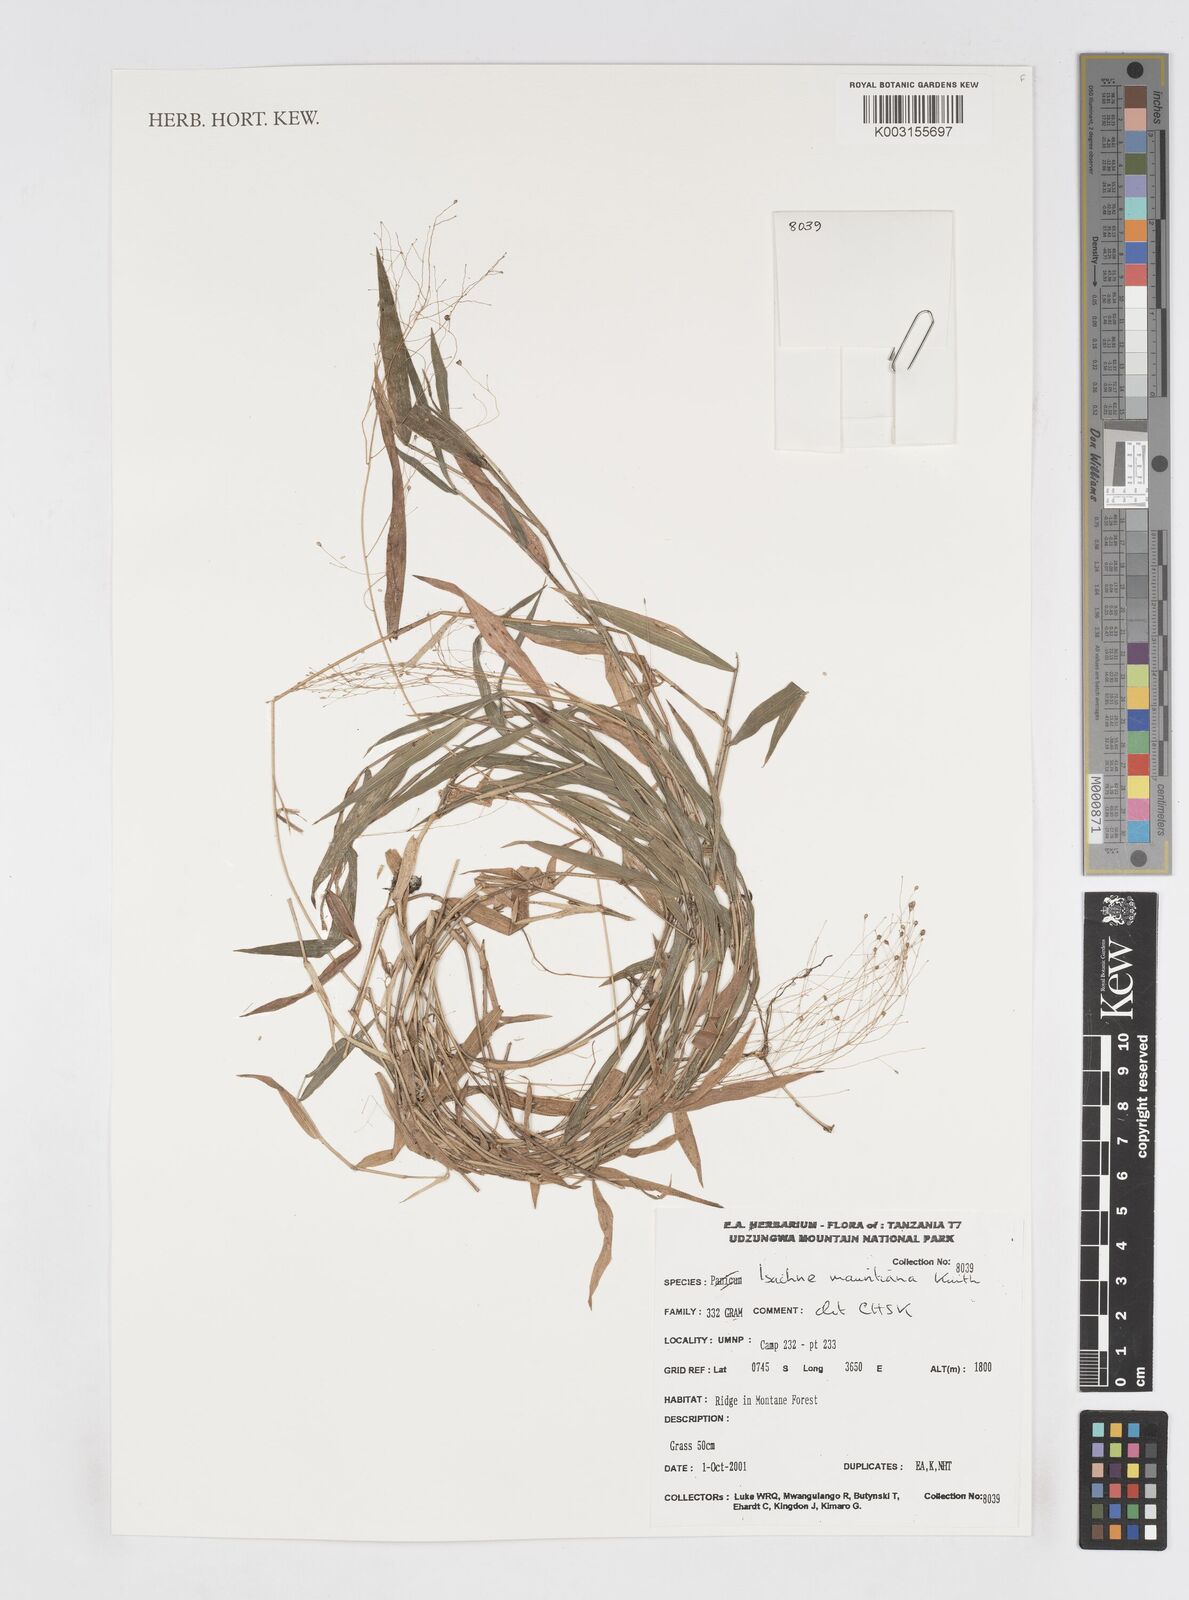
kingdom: Plantae
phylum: Tracheophyta
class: Liliopsida
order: Poales
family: Poaceae
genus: Isachne
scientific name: Isachne mauritiana
